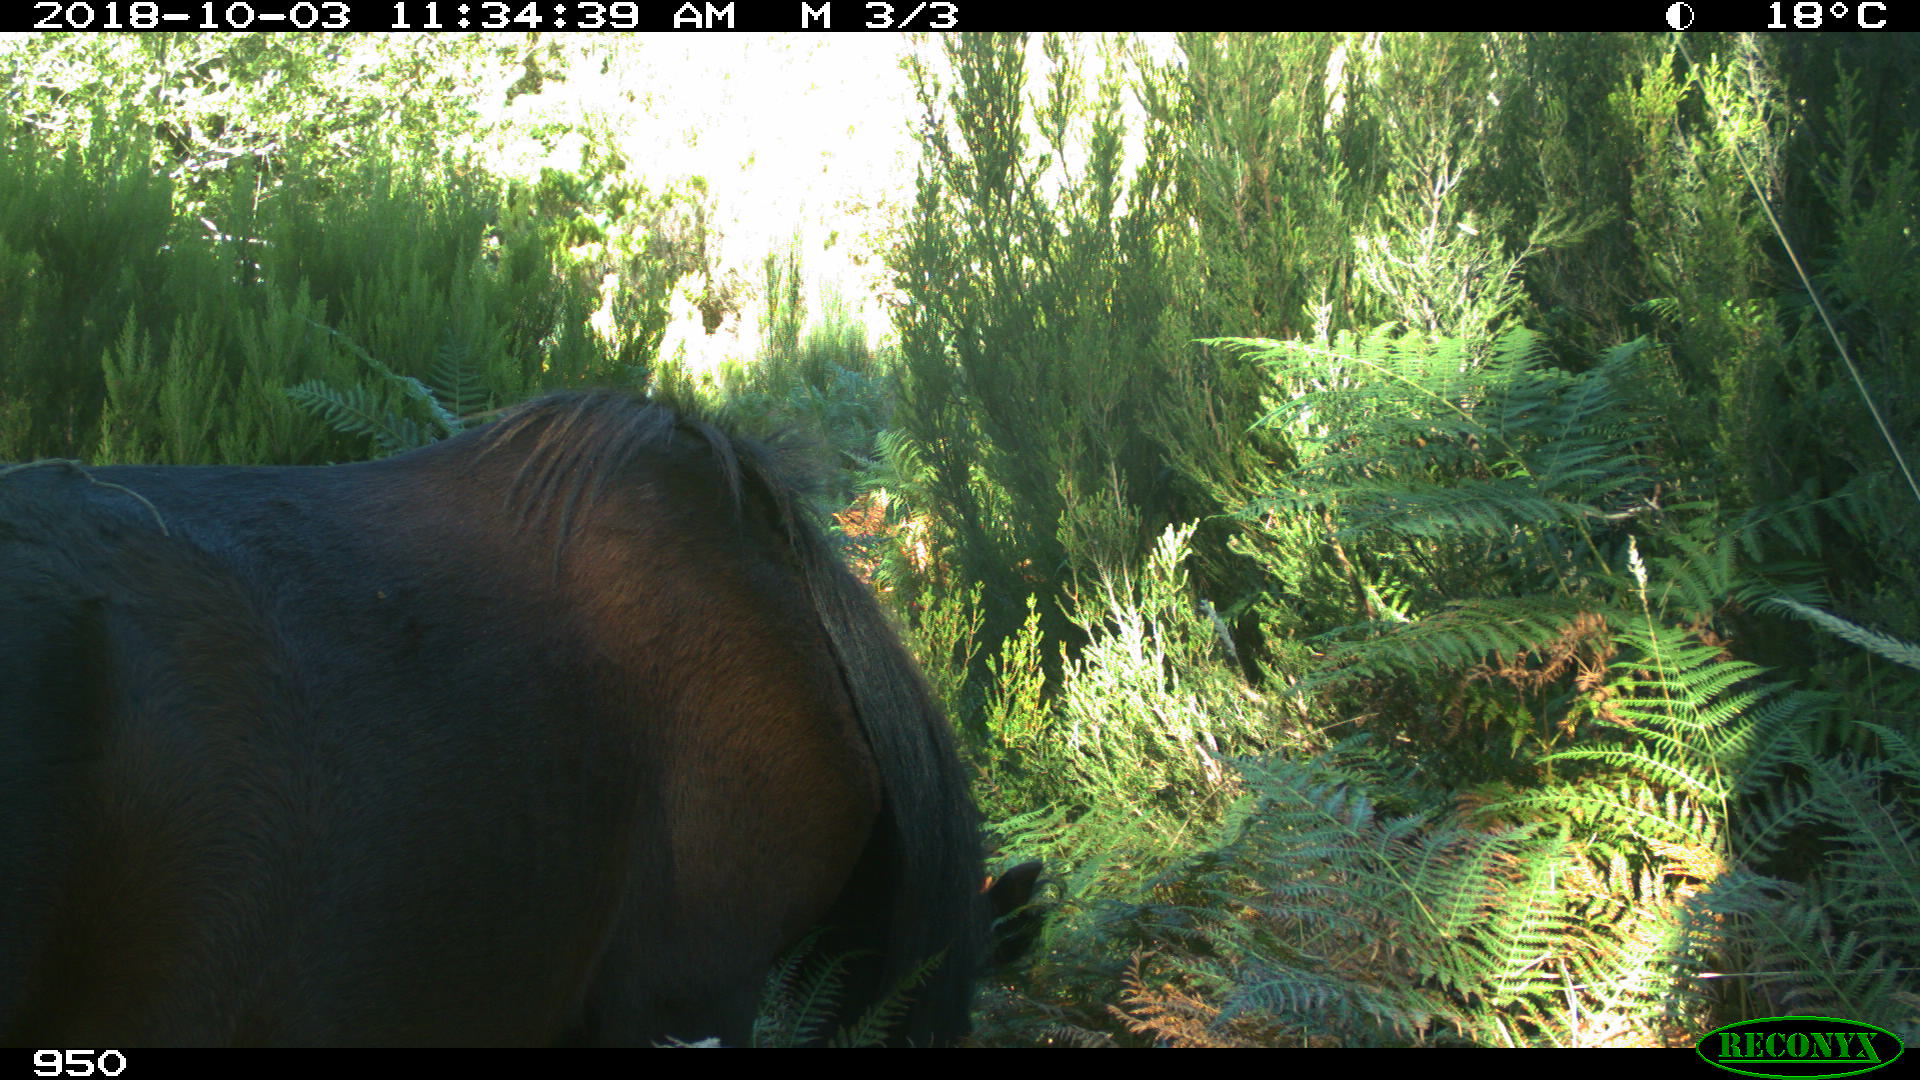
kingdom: Animalia
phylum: Chordata
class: Mammalia
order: Perissodactyla
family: Equidae
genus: Equus
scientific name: Equus caballus
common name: Horse
